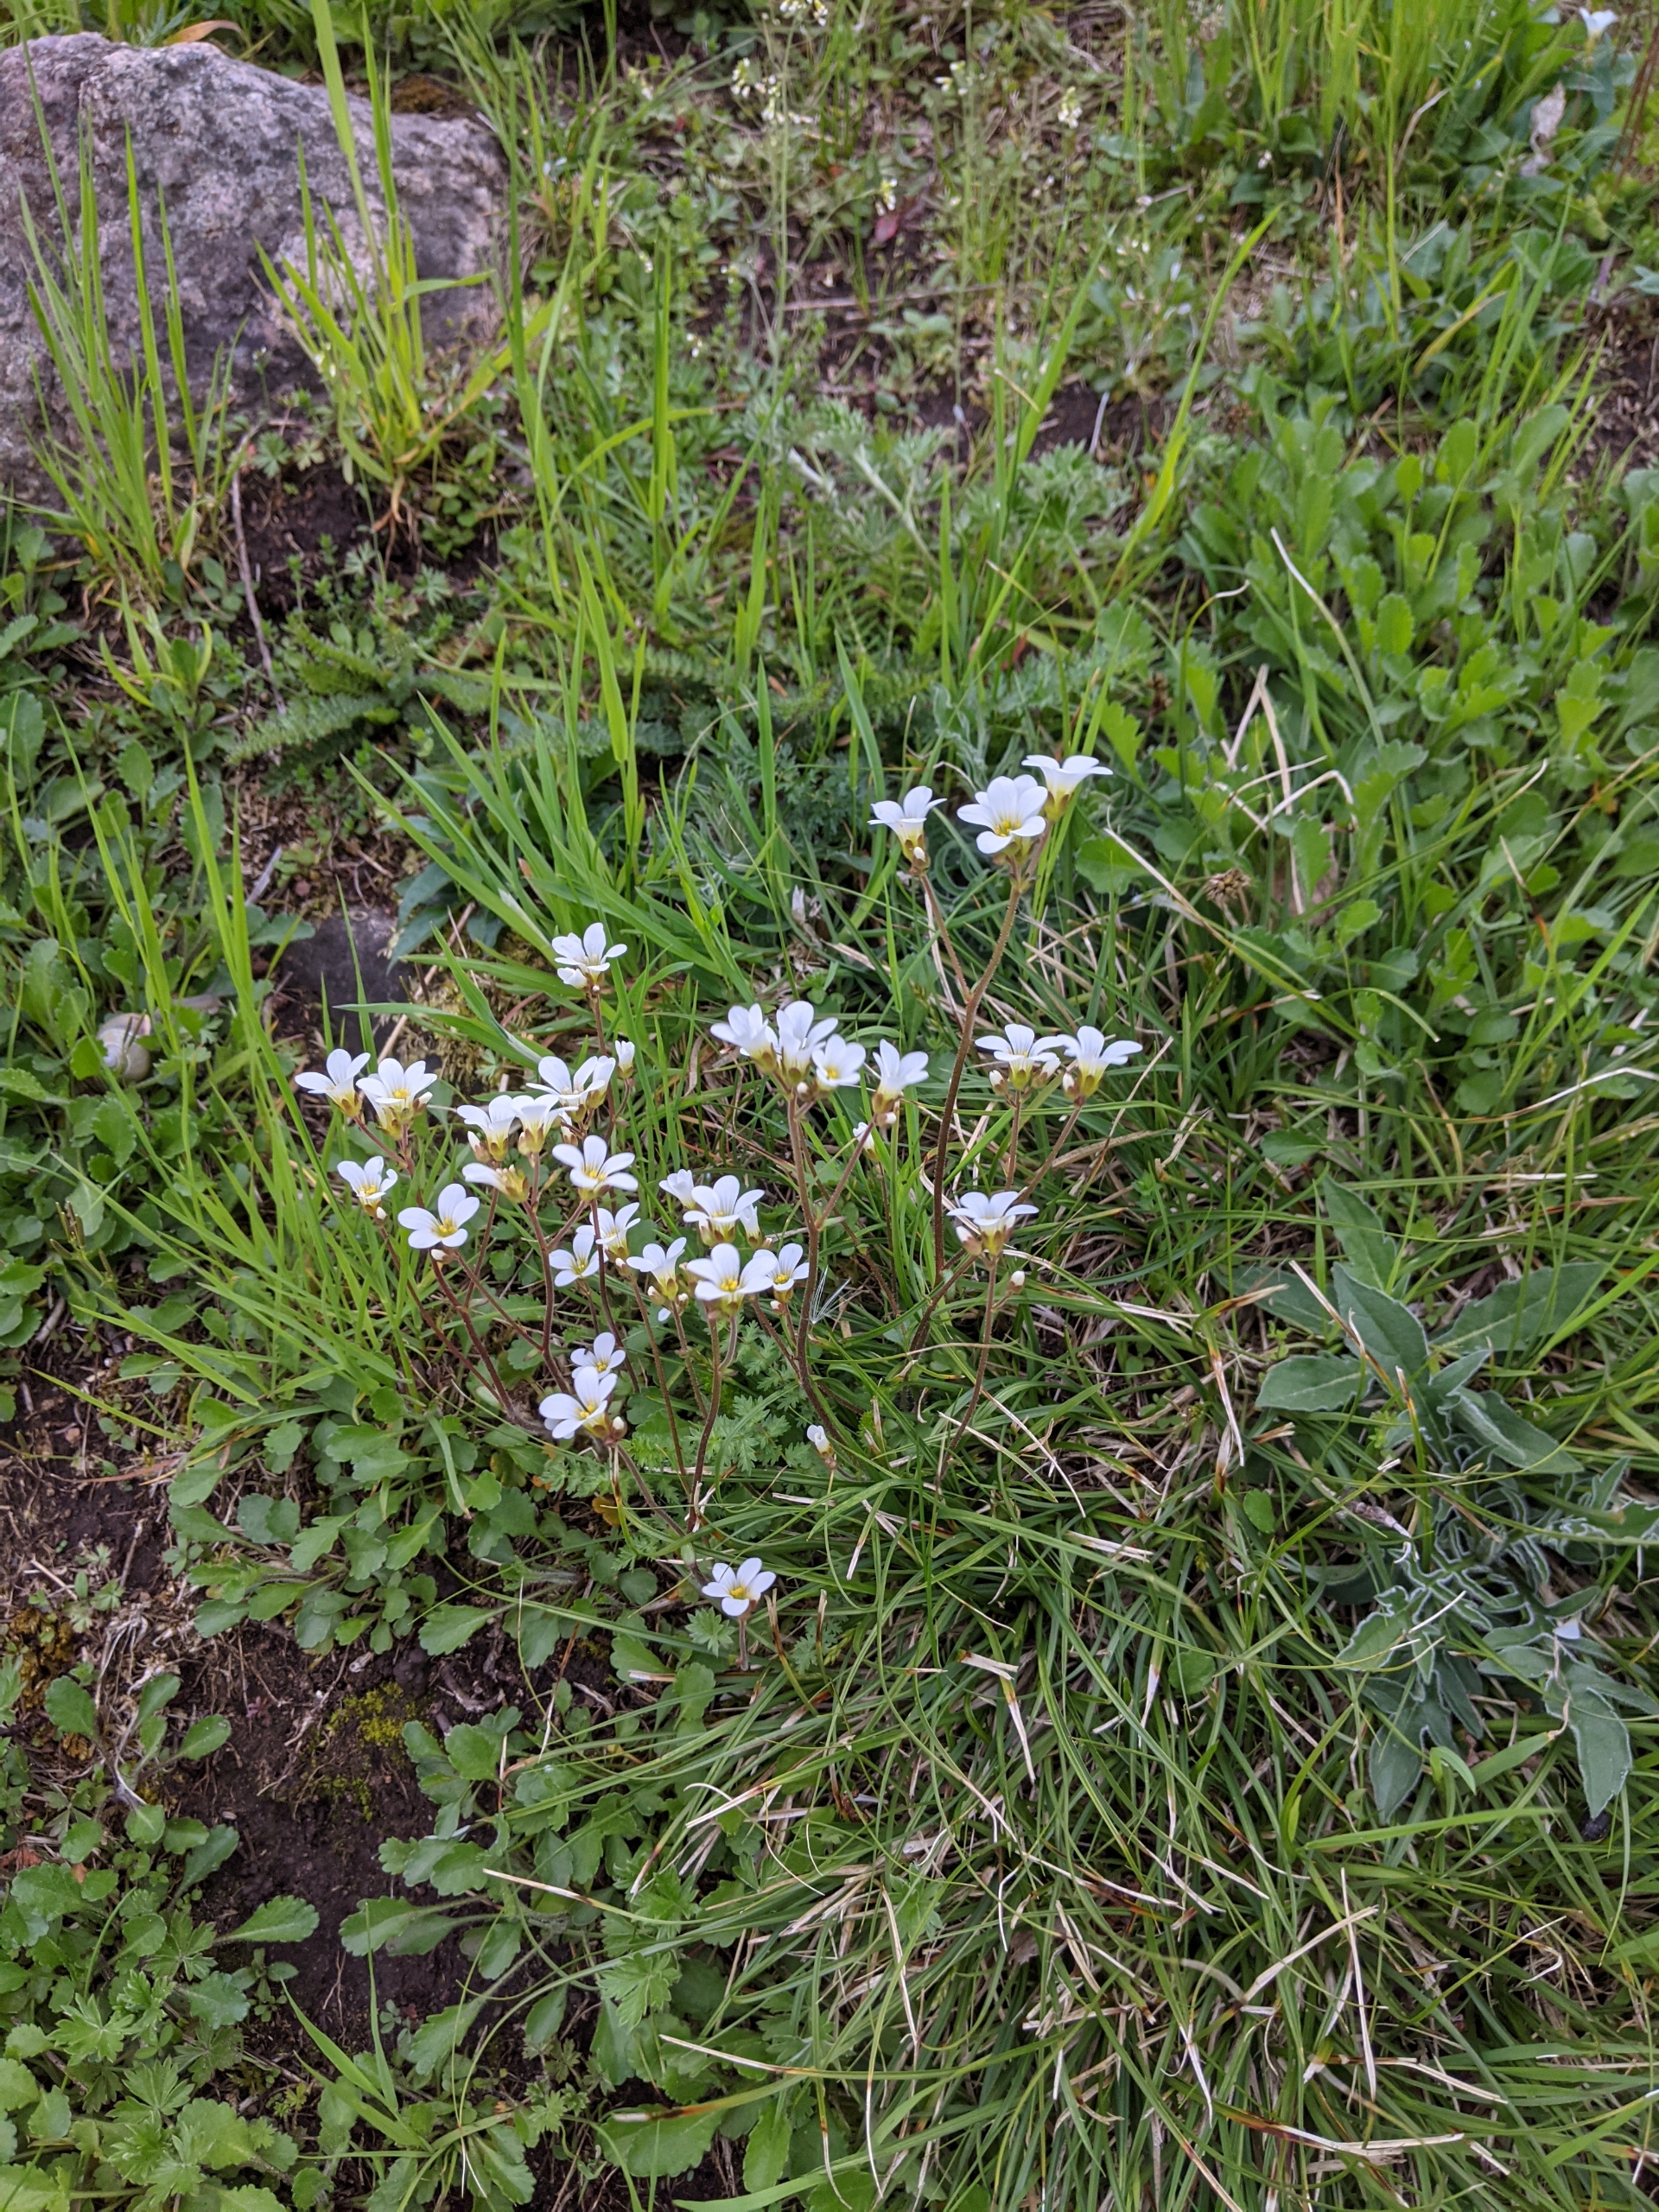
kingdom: Plantae
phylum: Tracheophyta
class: Magnoliopsida
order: Saxifragales
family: Saxifragaceae
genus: Saxifraga
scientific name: Saxifraga granulata
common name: Kornet stenbræk
